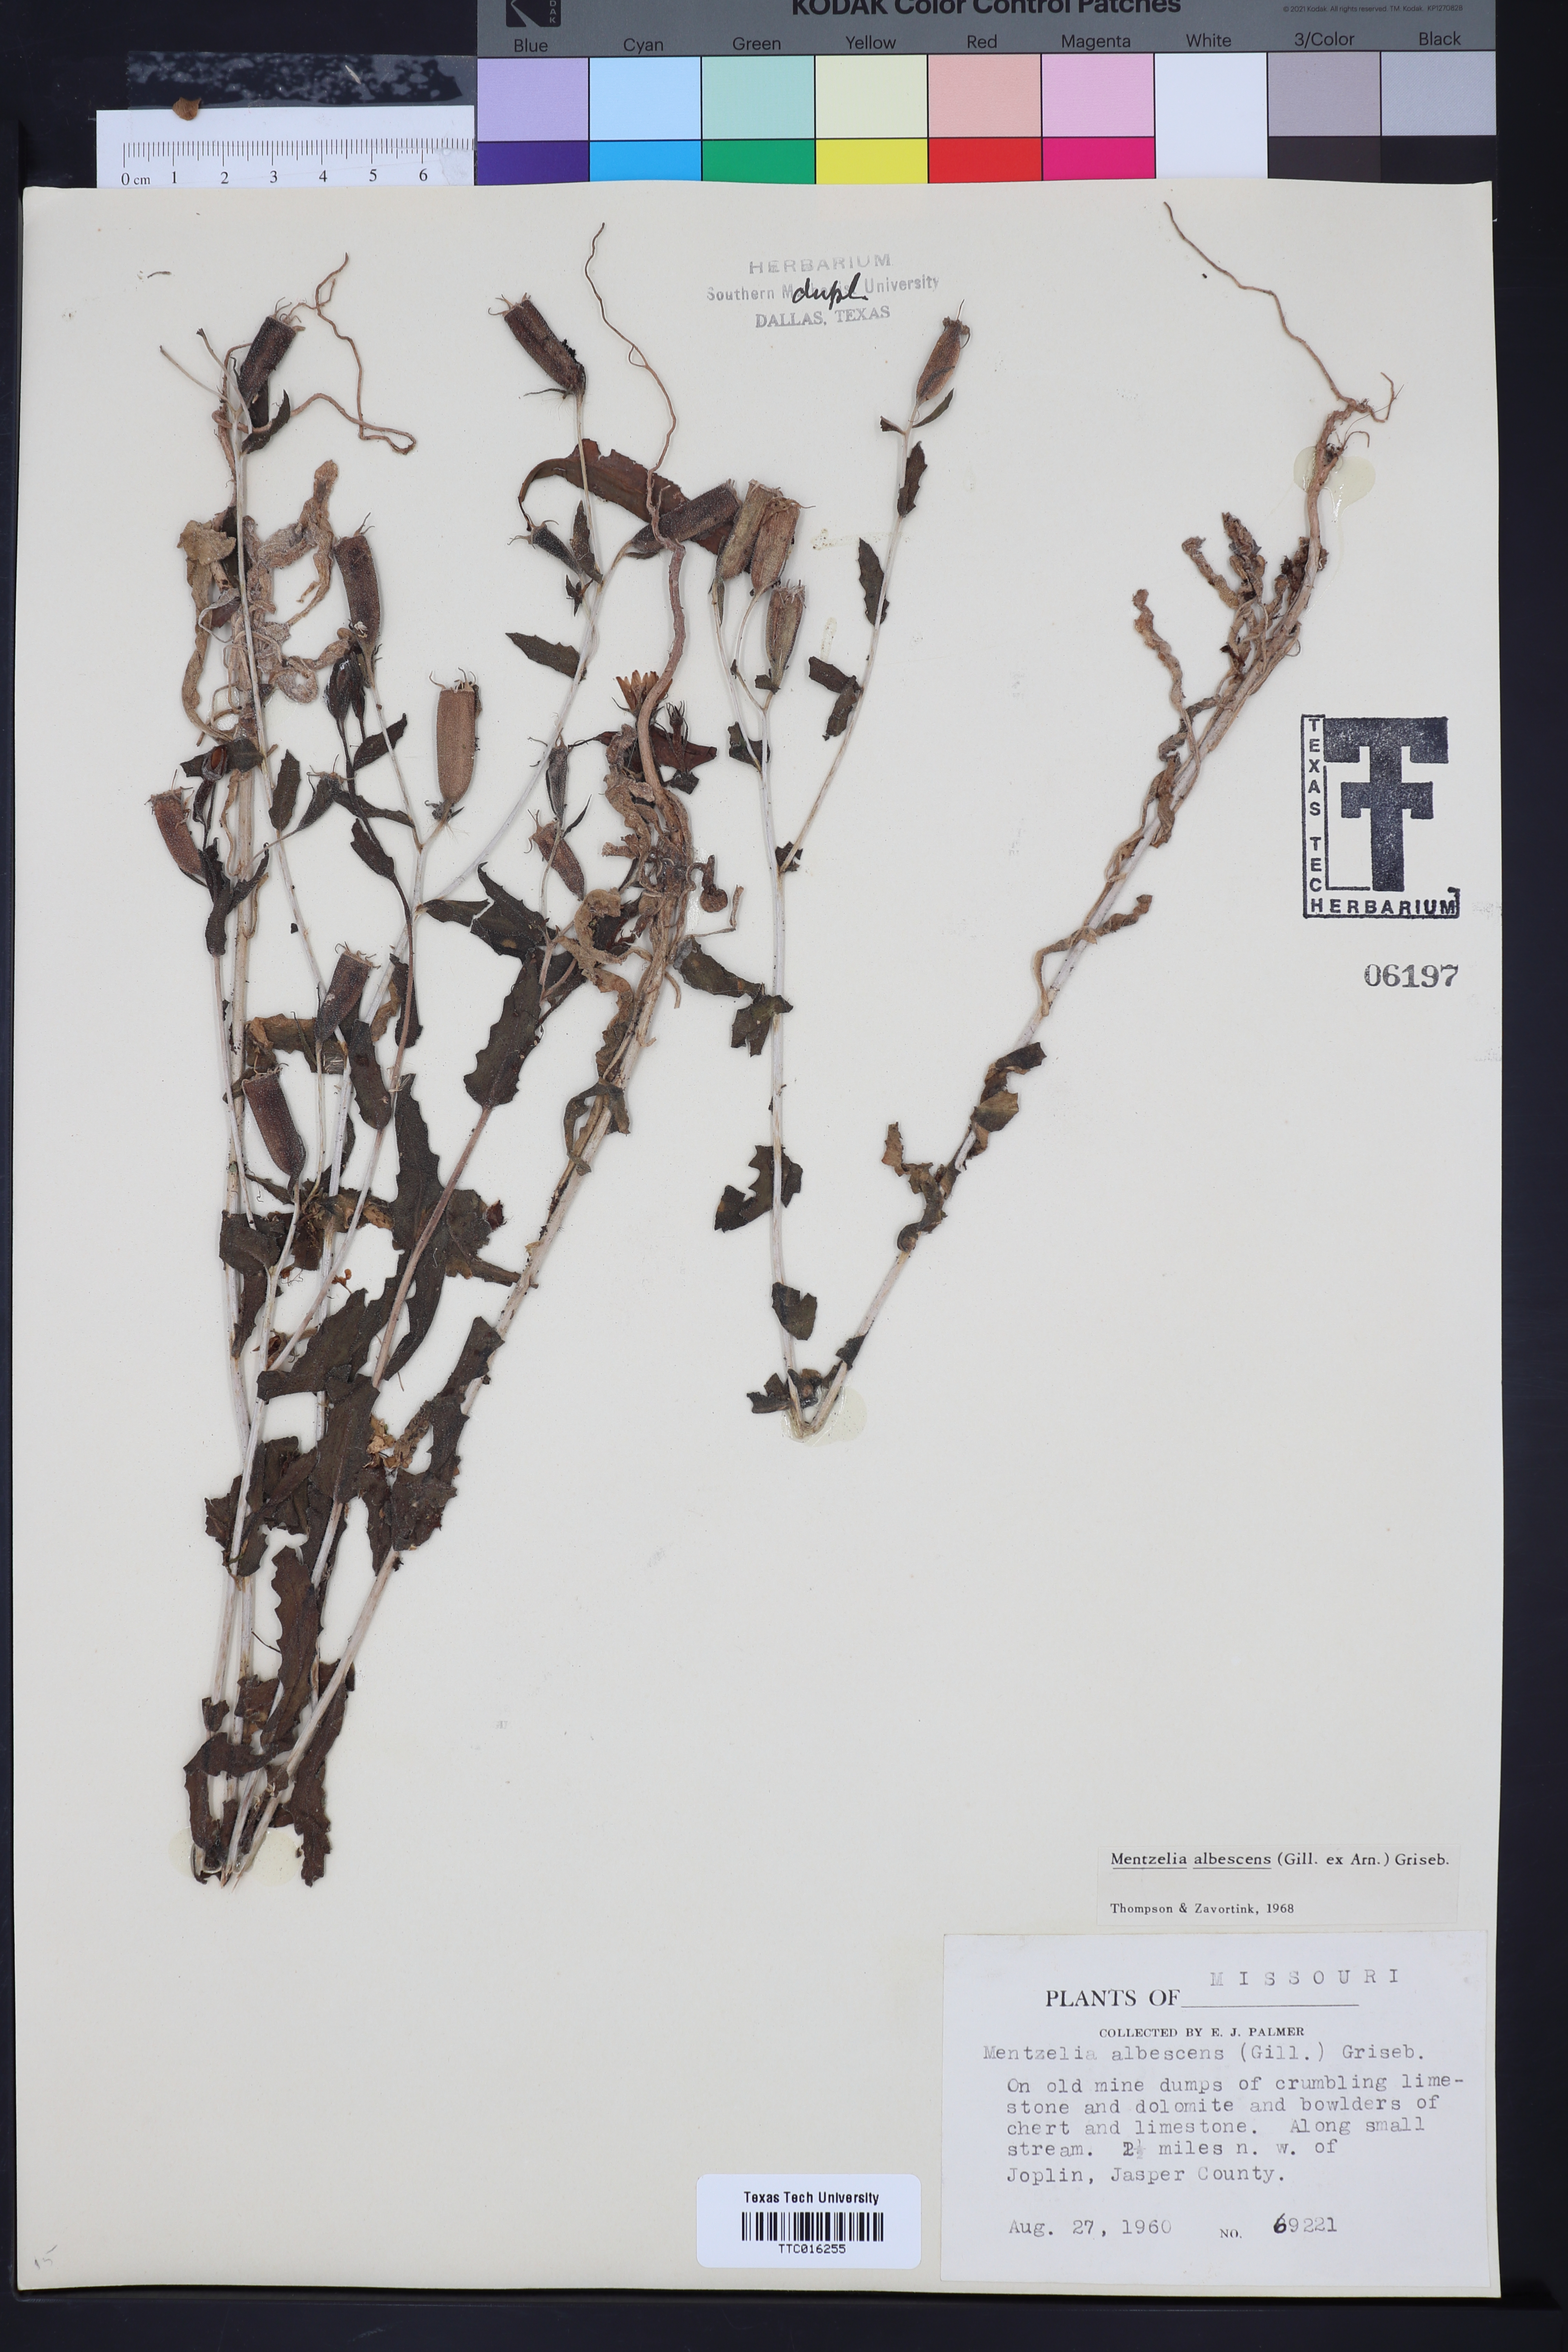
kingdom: Plantae
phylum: Tracheophyta
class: Magnoliopsida
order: Cornales
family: Loasaceae
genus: Mentzelia
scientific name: Mentzelia albescens
